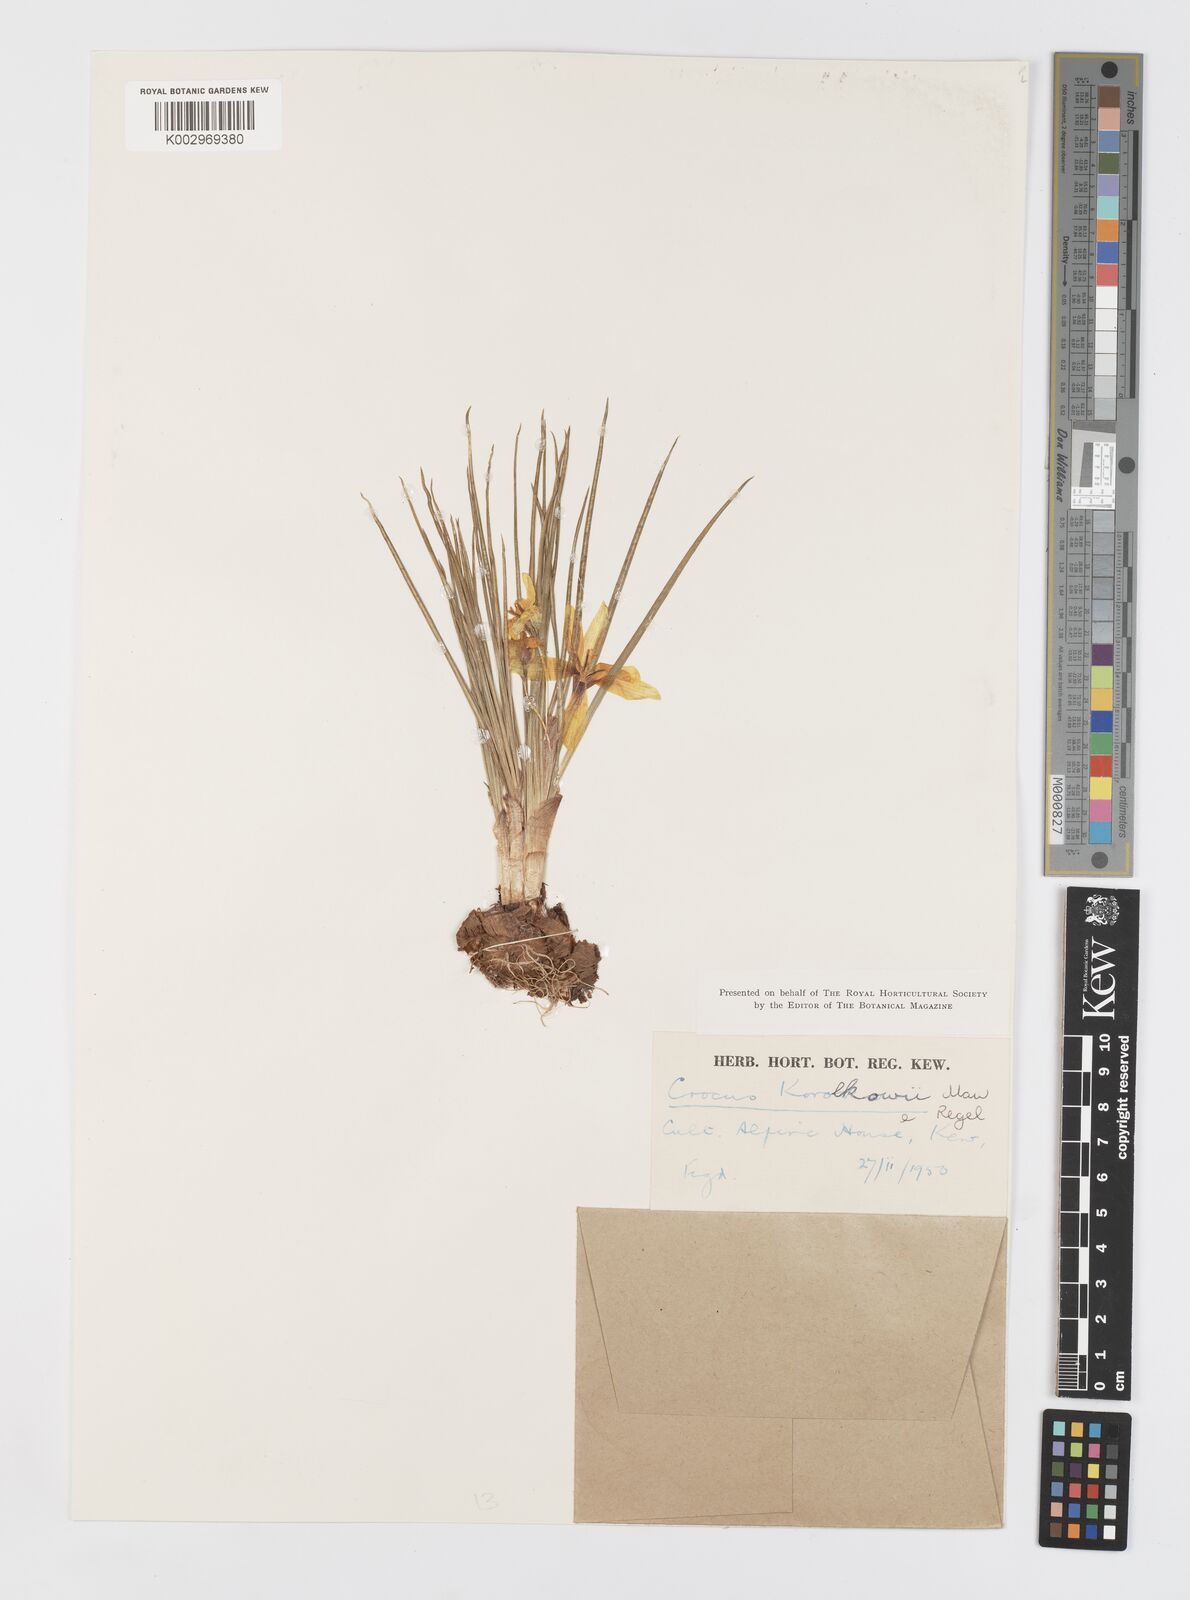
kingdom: Plantae
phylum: Tracheophyta
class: Liliopsida
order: Asparagales
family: Iridaceae
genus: Crocus
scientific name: Crocus korolkowii
